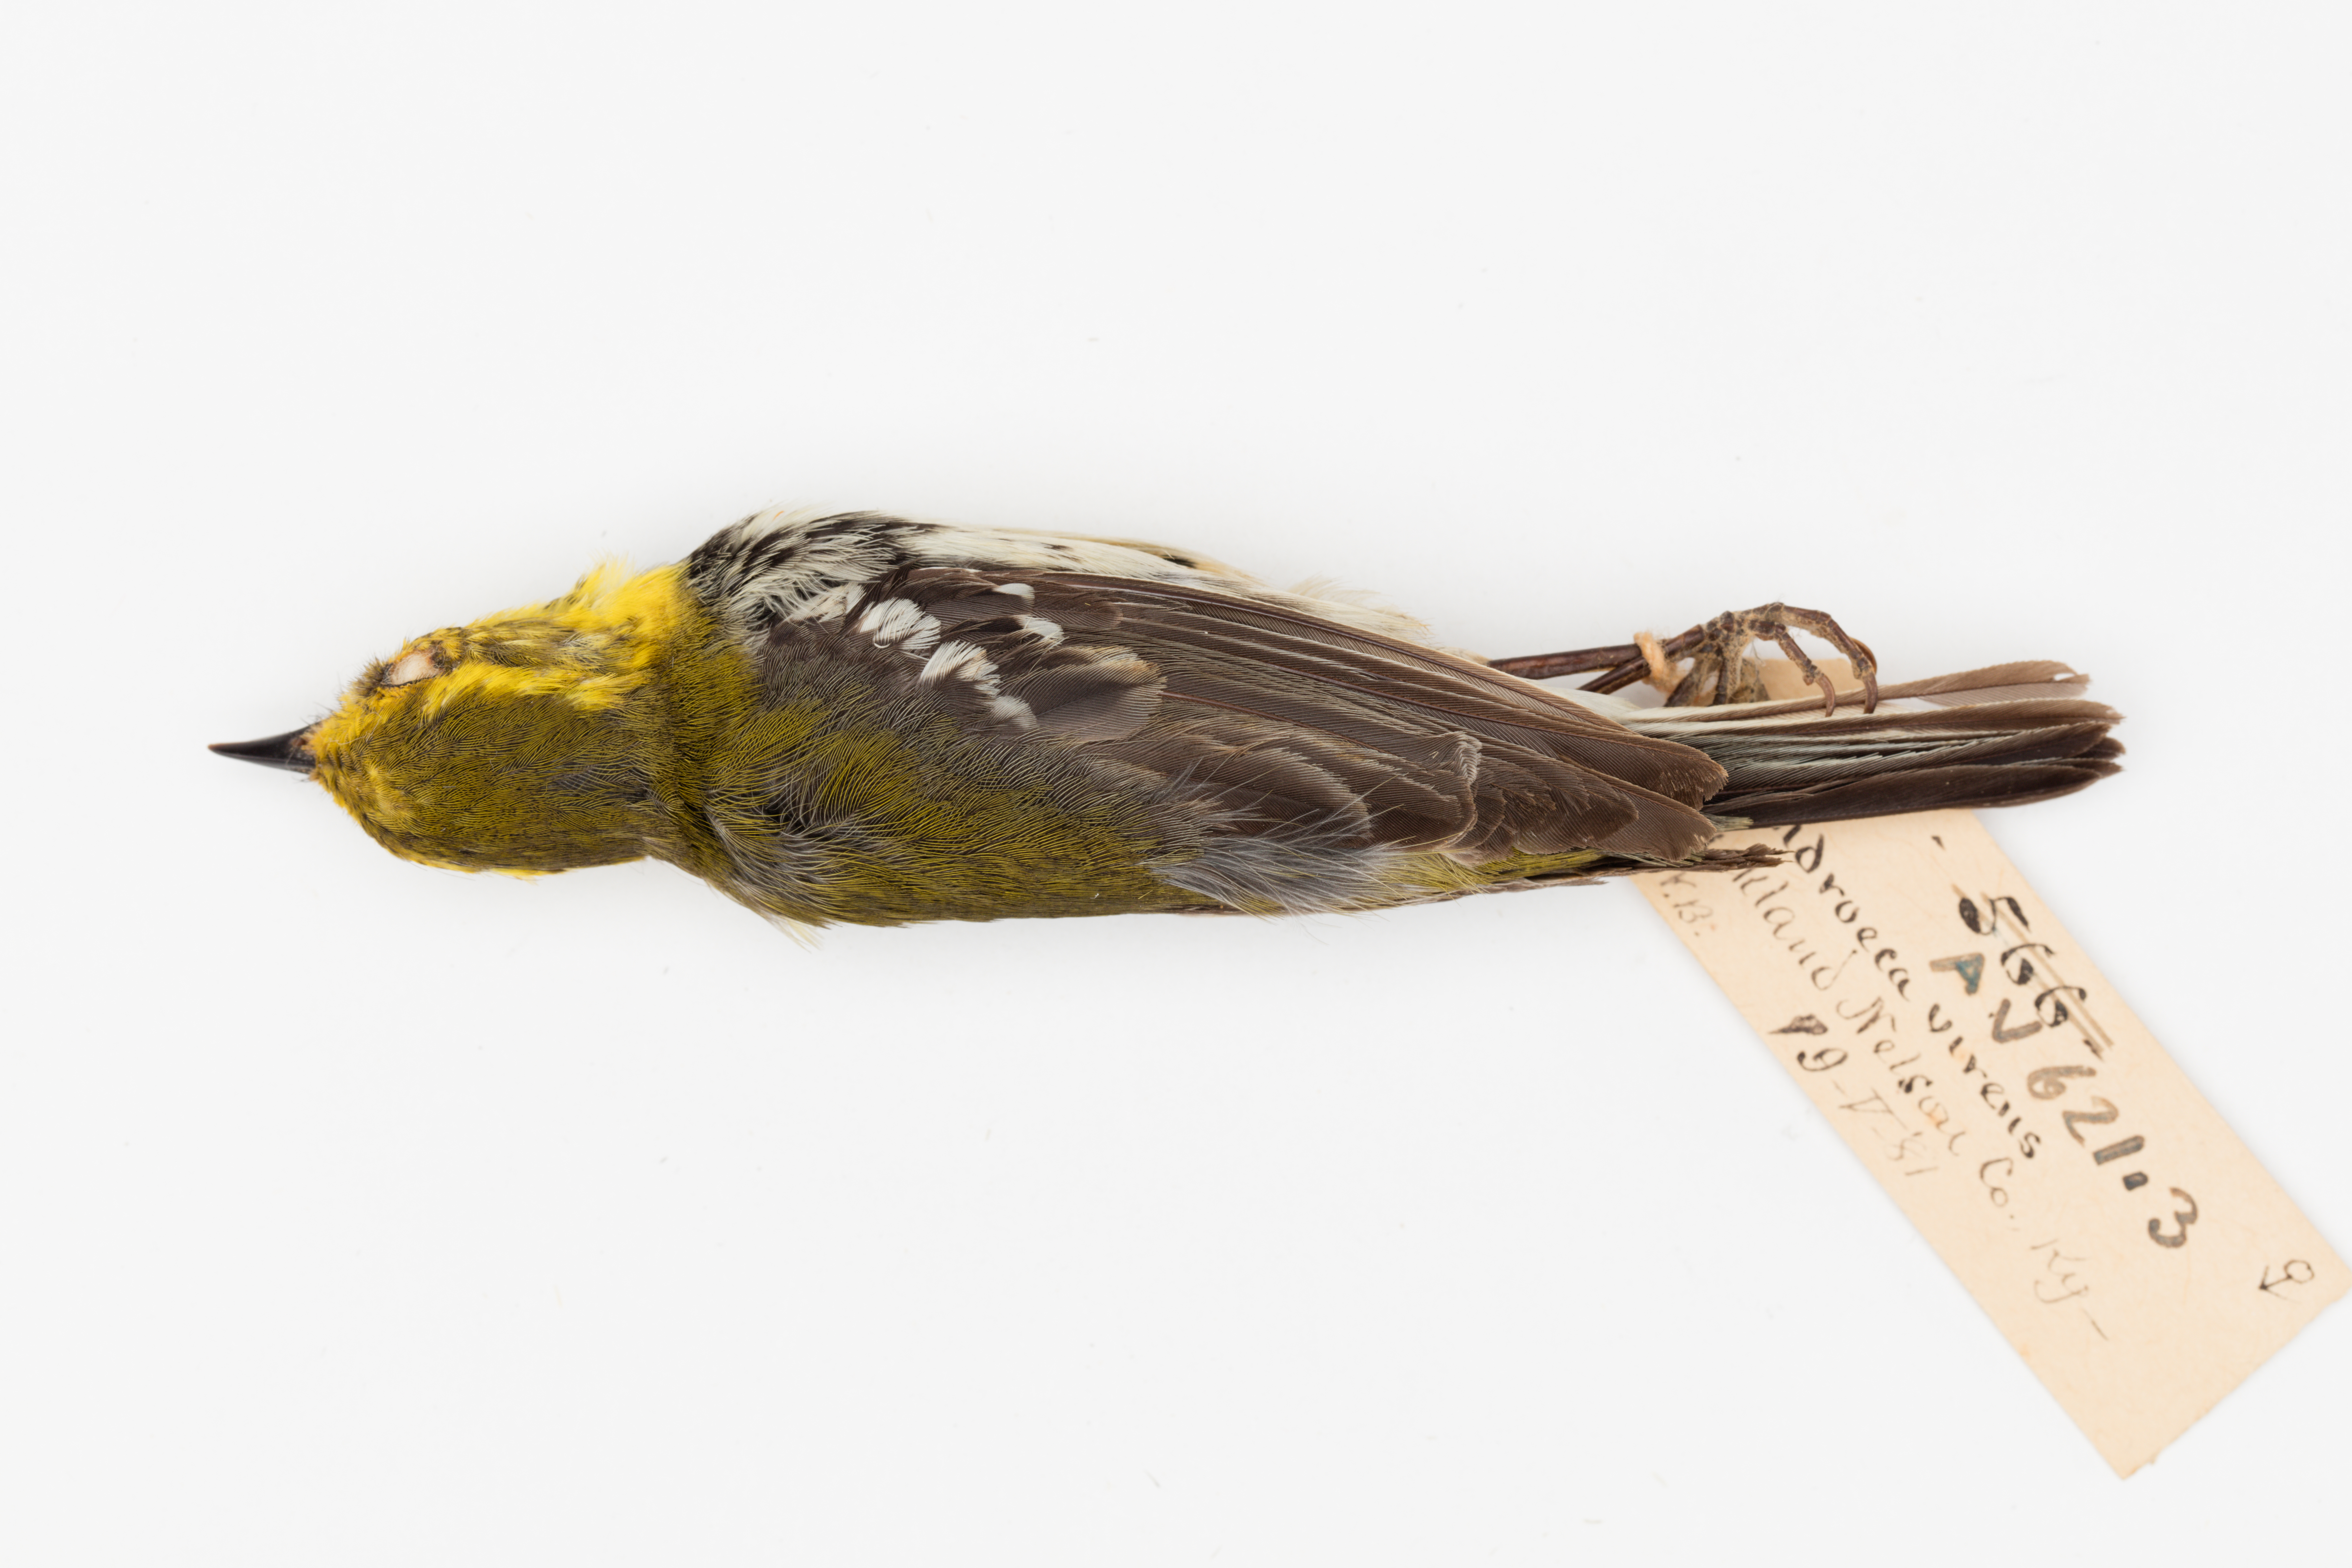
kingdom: Animalia
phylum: Chordata
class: Aves
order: Passeriformes
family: Parulidae
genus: Setophaga
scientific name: Setophaga virens
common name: Black-throated green warbler
